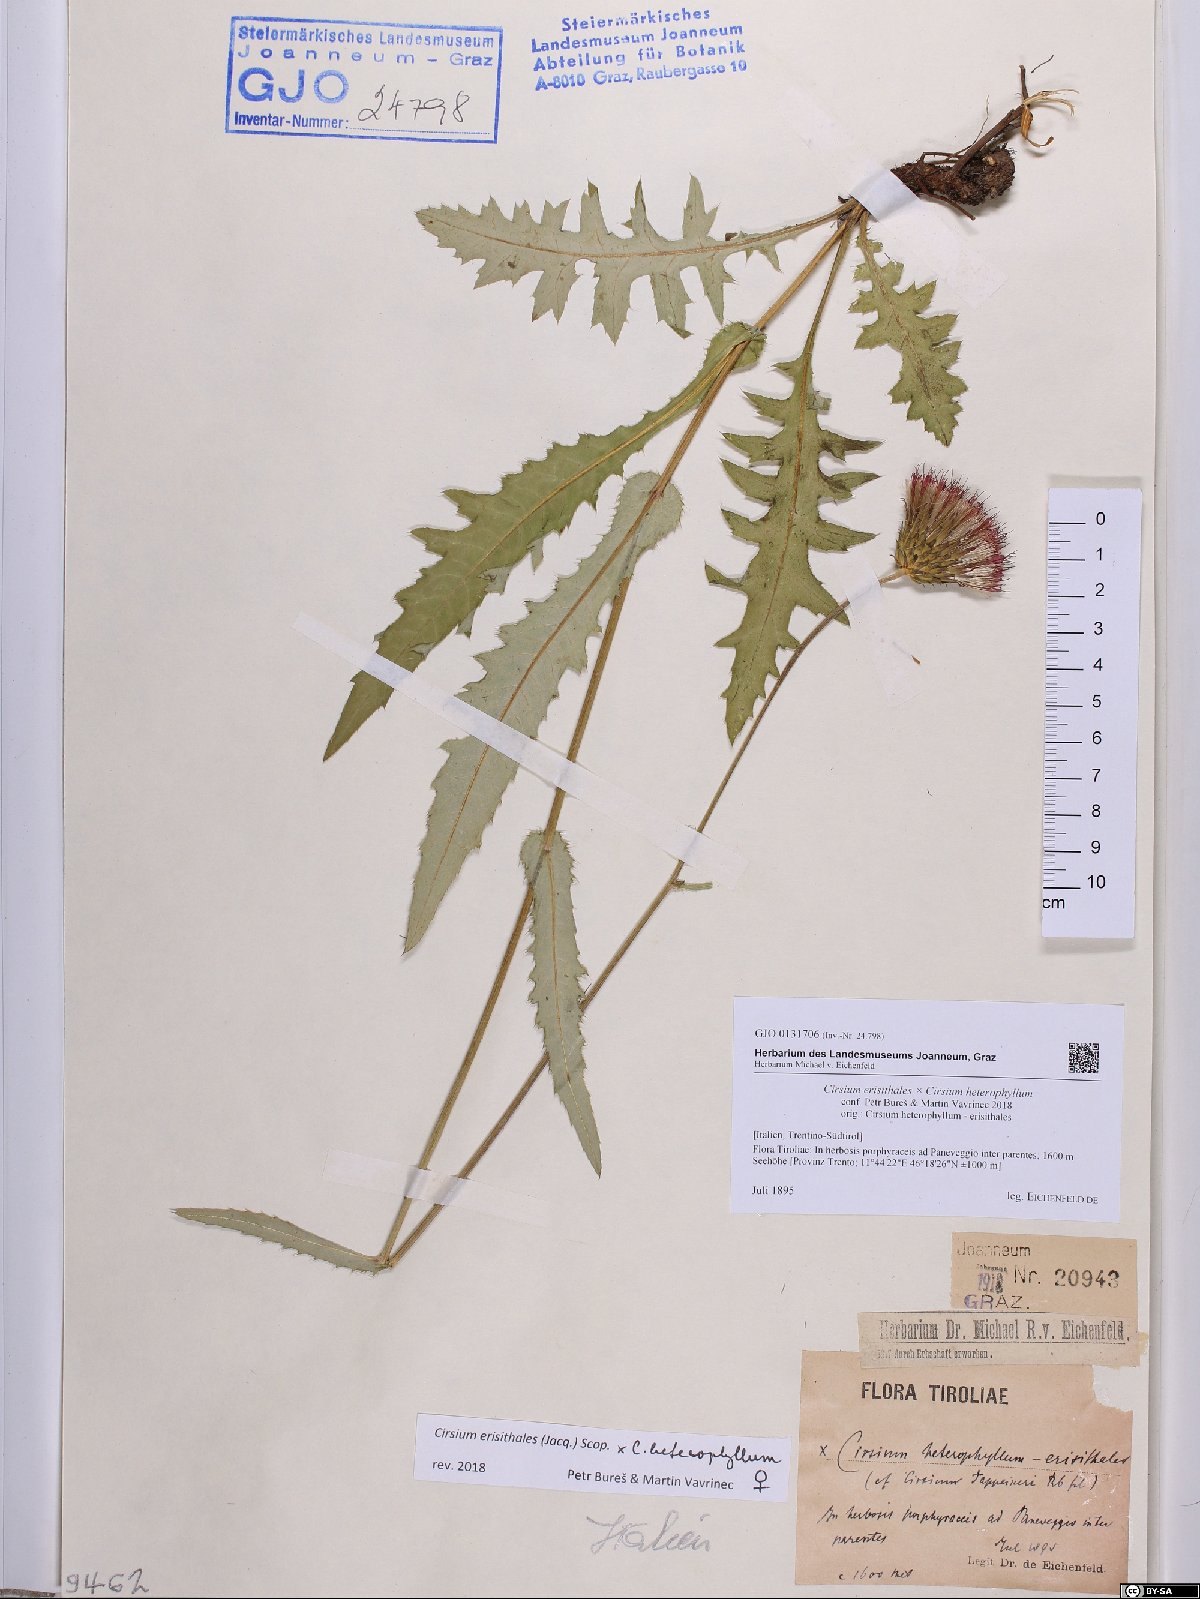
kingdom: Plantae
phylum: Tracheophyta
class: Magnoliopsida
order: Asterales
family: Asteraceae
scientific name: Asteraceae
